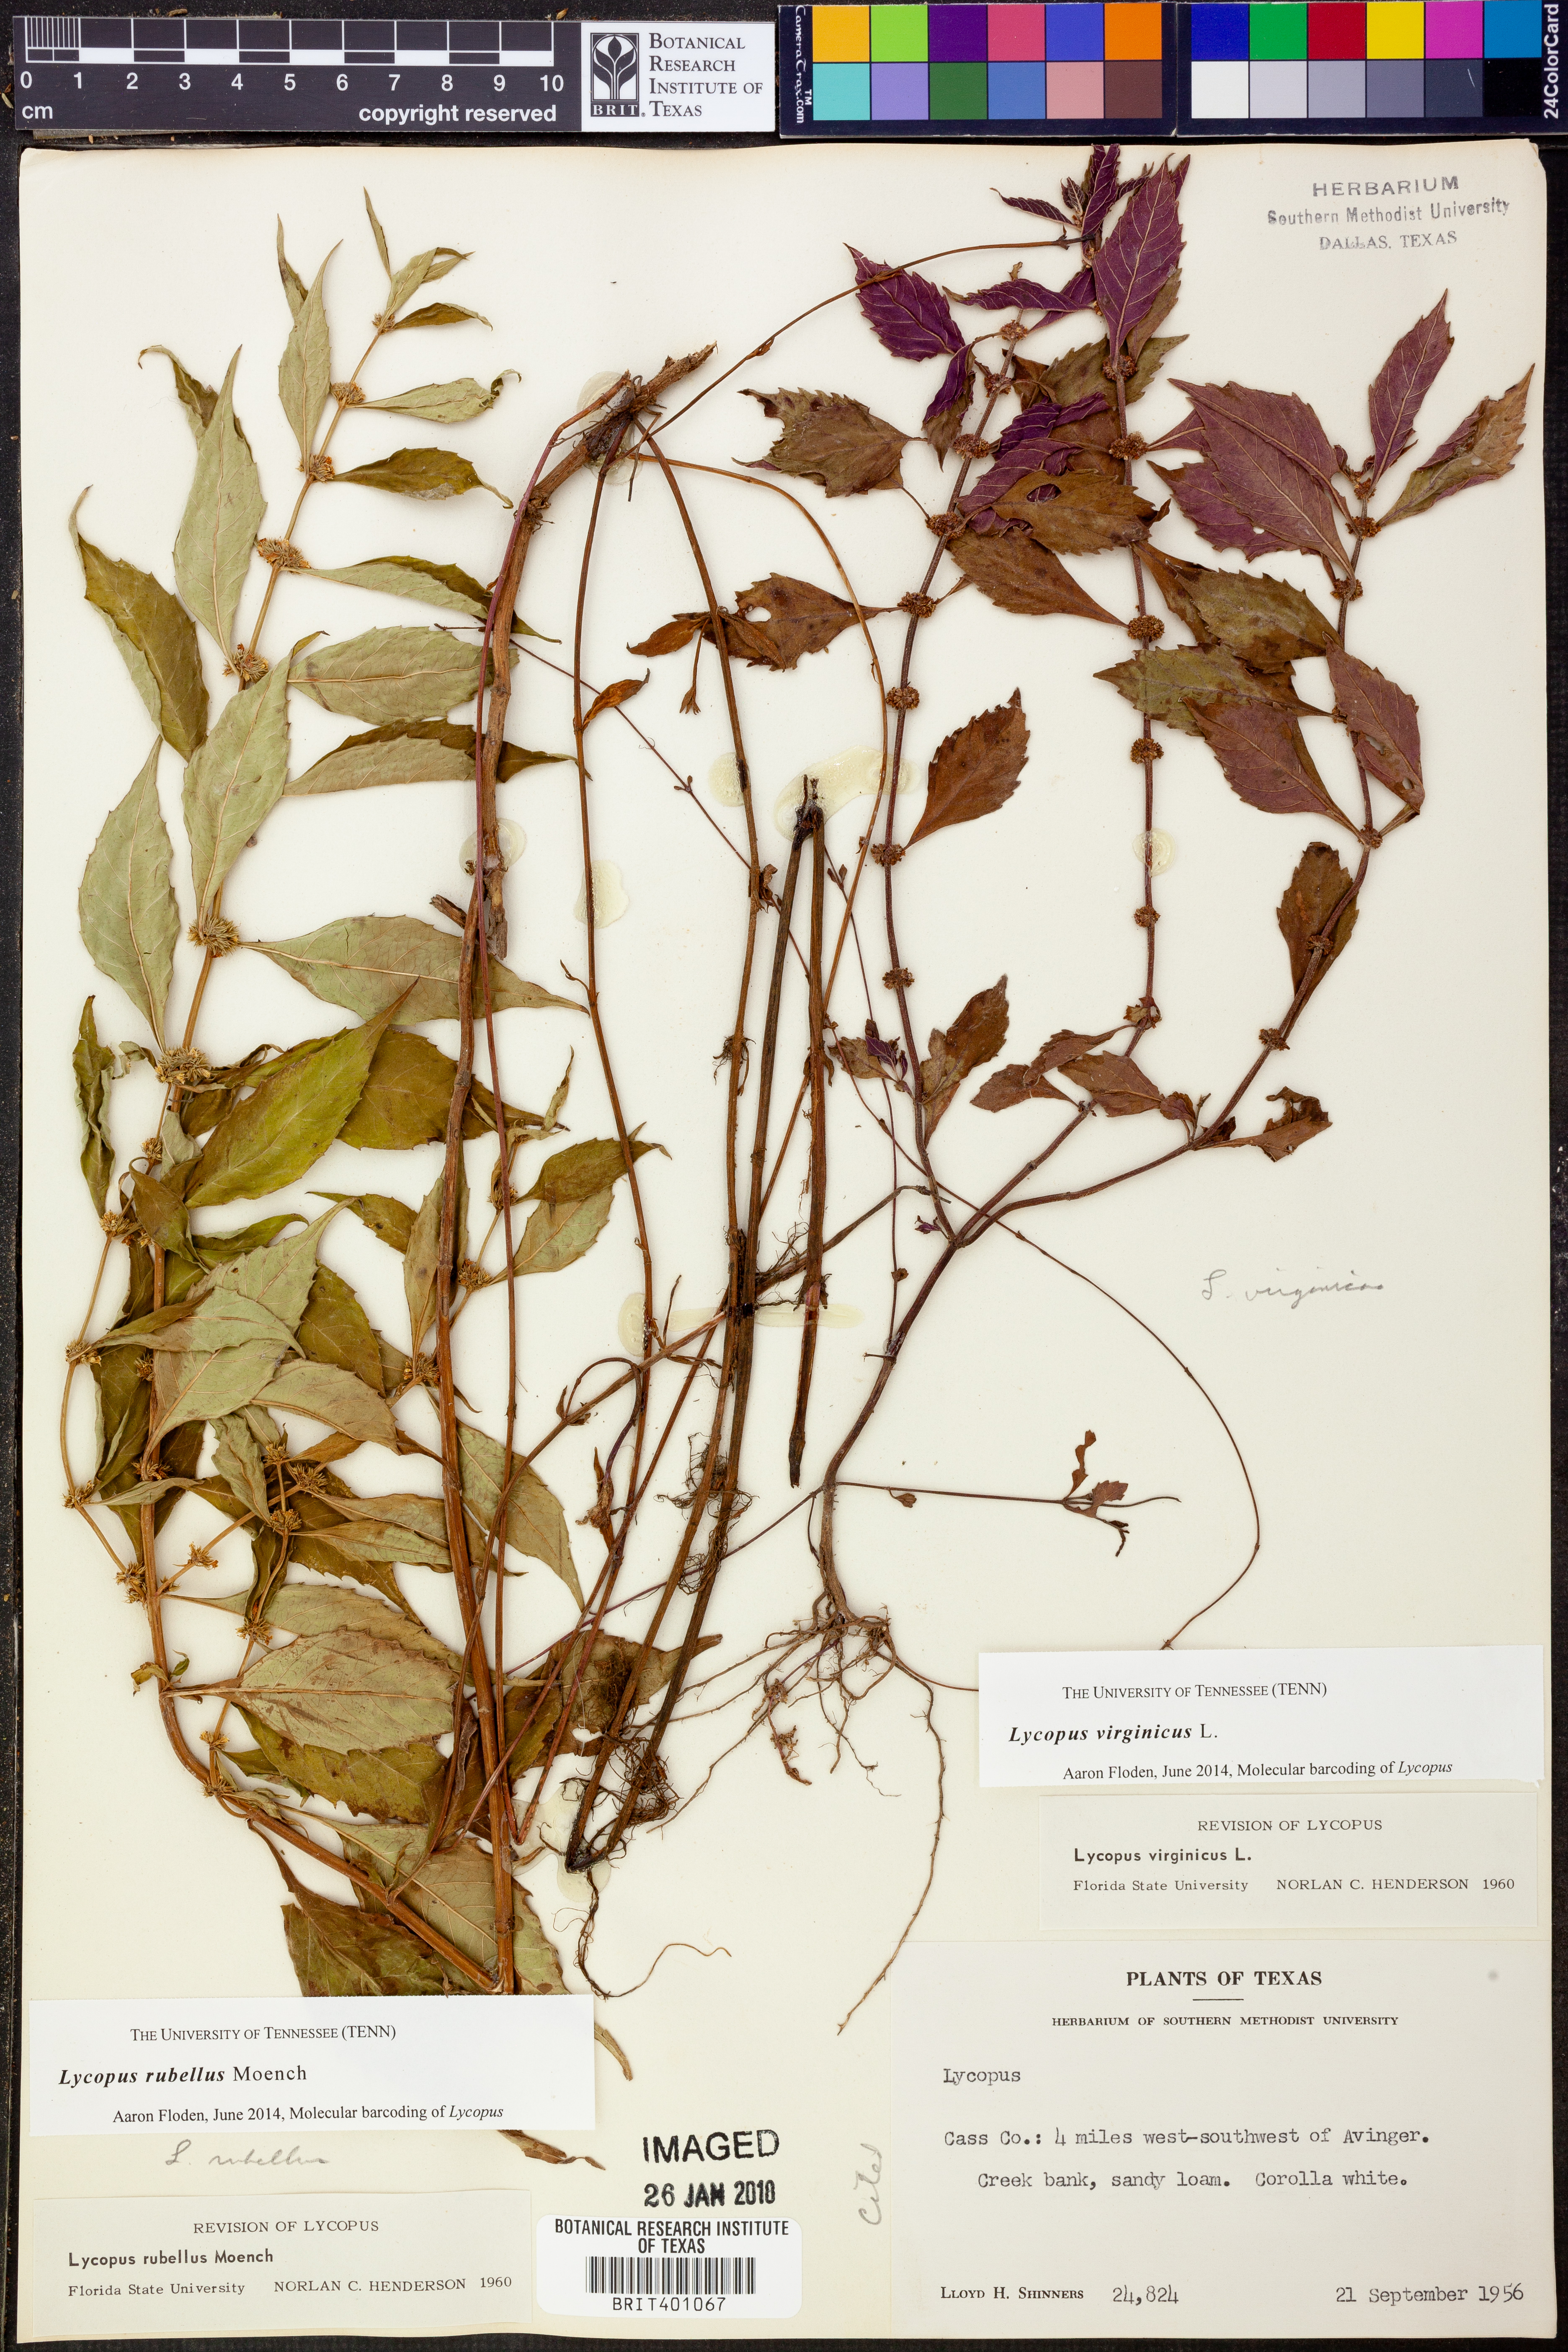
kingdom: Plantae
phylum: Tracheophyta
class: Magnoliopsida
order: Lamiales
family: Lamiaceae
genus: Lycopus
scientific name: Lycopus virginicus
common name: Bugleweed
